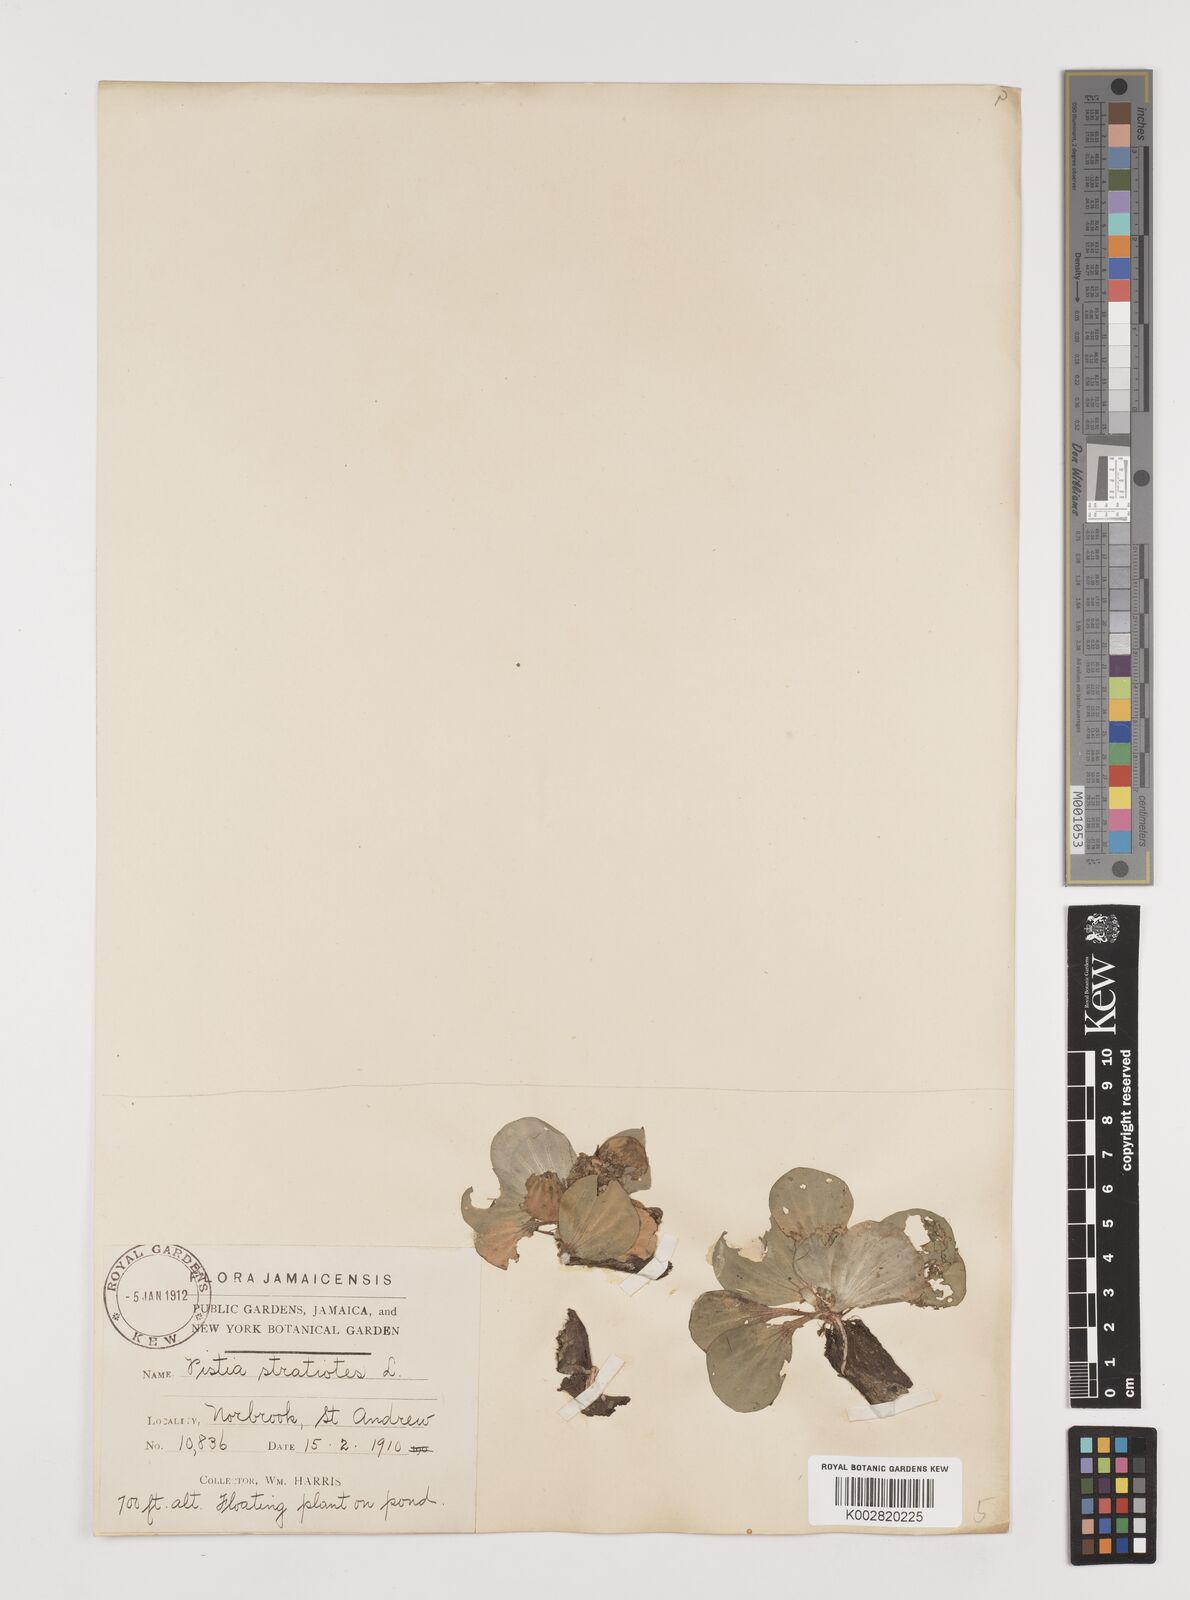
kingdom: Plantae
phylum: Tracheophyta
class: Liliopsida
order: Alismatales
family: Araceae
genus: Pistia
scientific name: Pistia stratiotes
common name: Water lettuce
